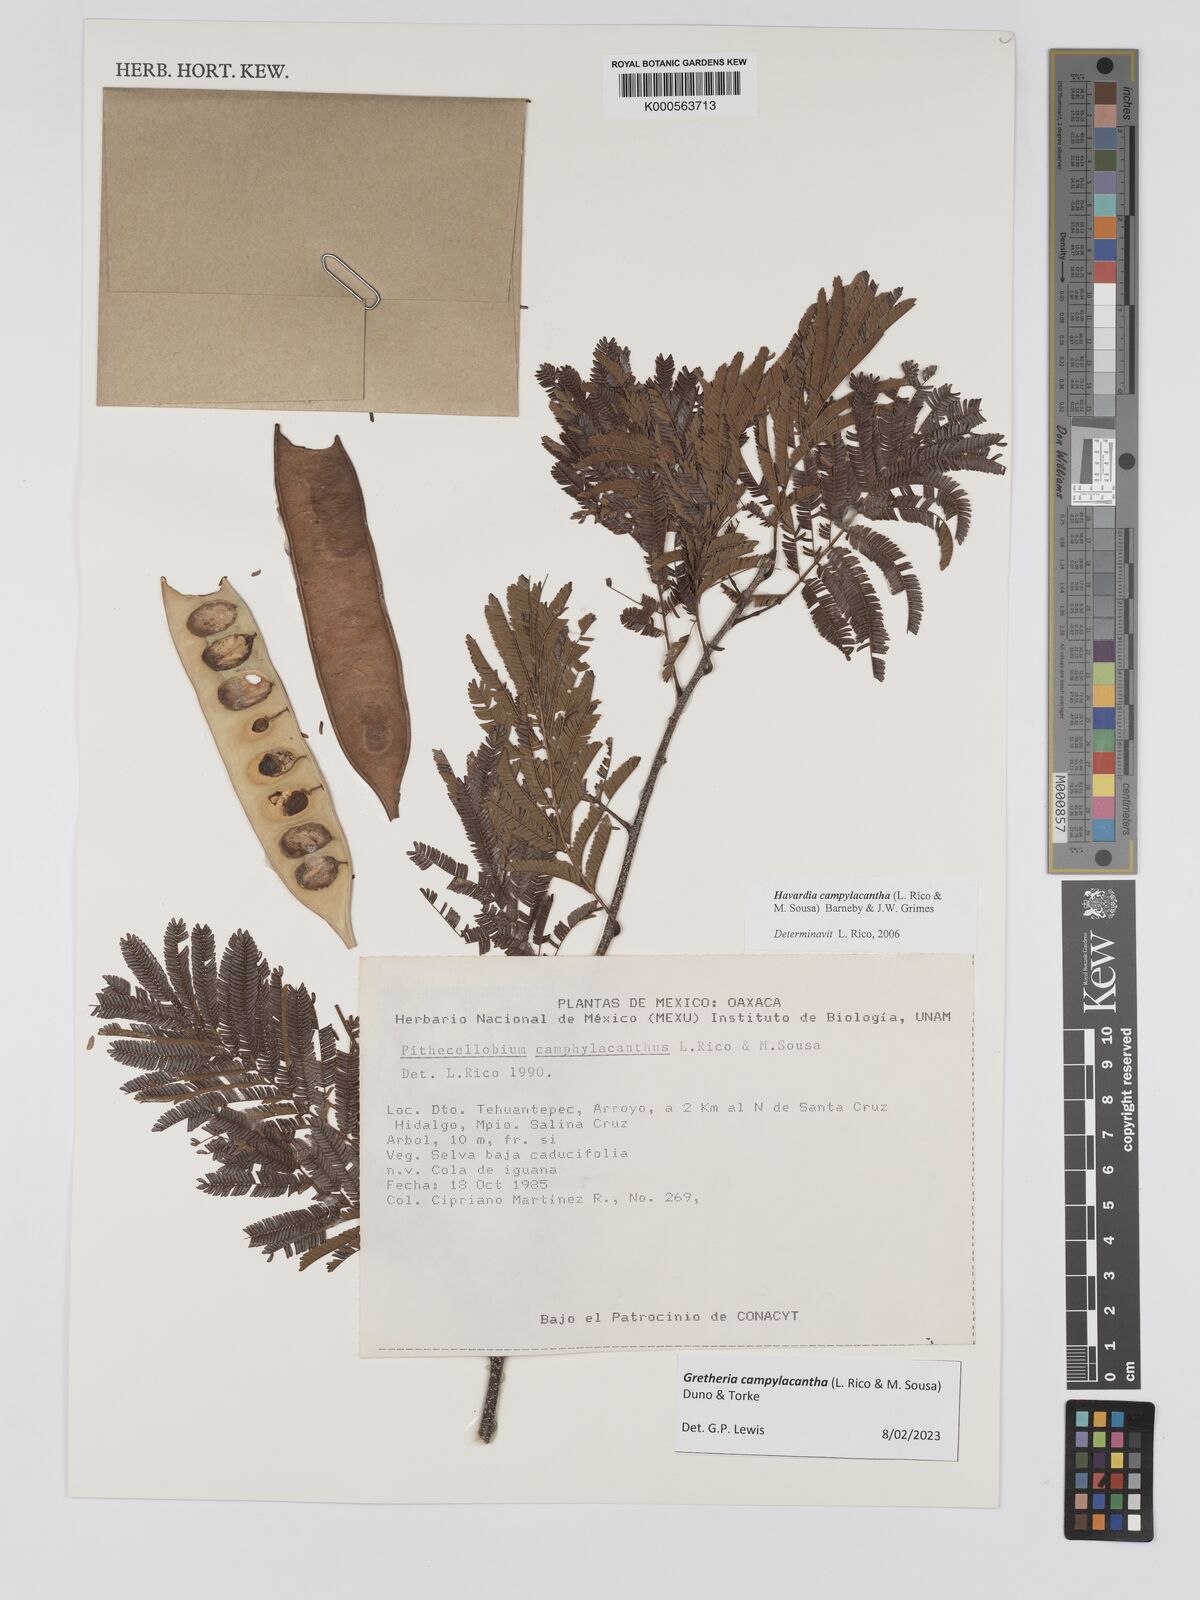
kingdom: Plantae
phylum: Tracheophyta
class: Magnoliopsida
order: Fabales
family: Fabaceae
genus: Havardia
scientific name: Havardia campylacantha
